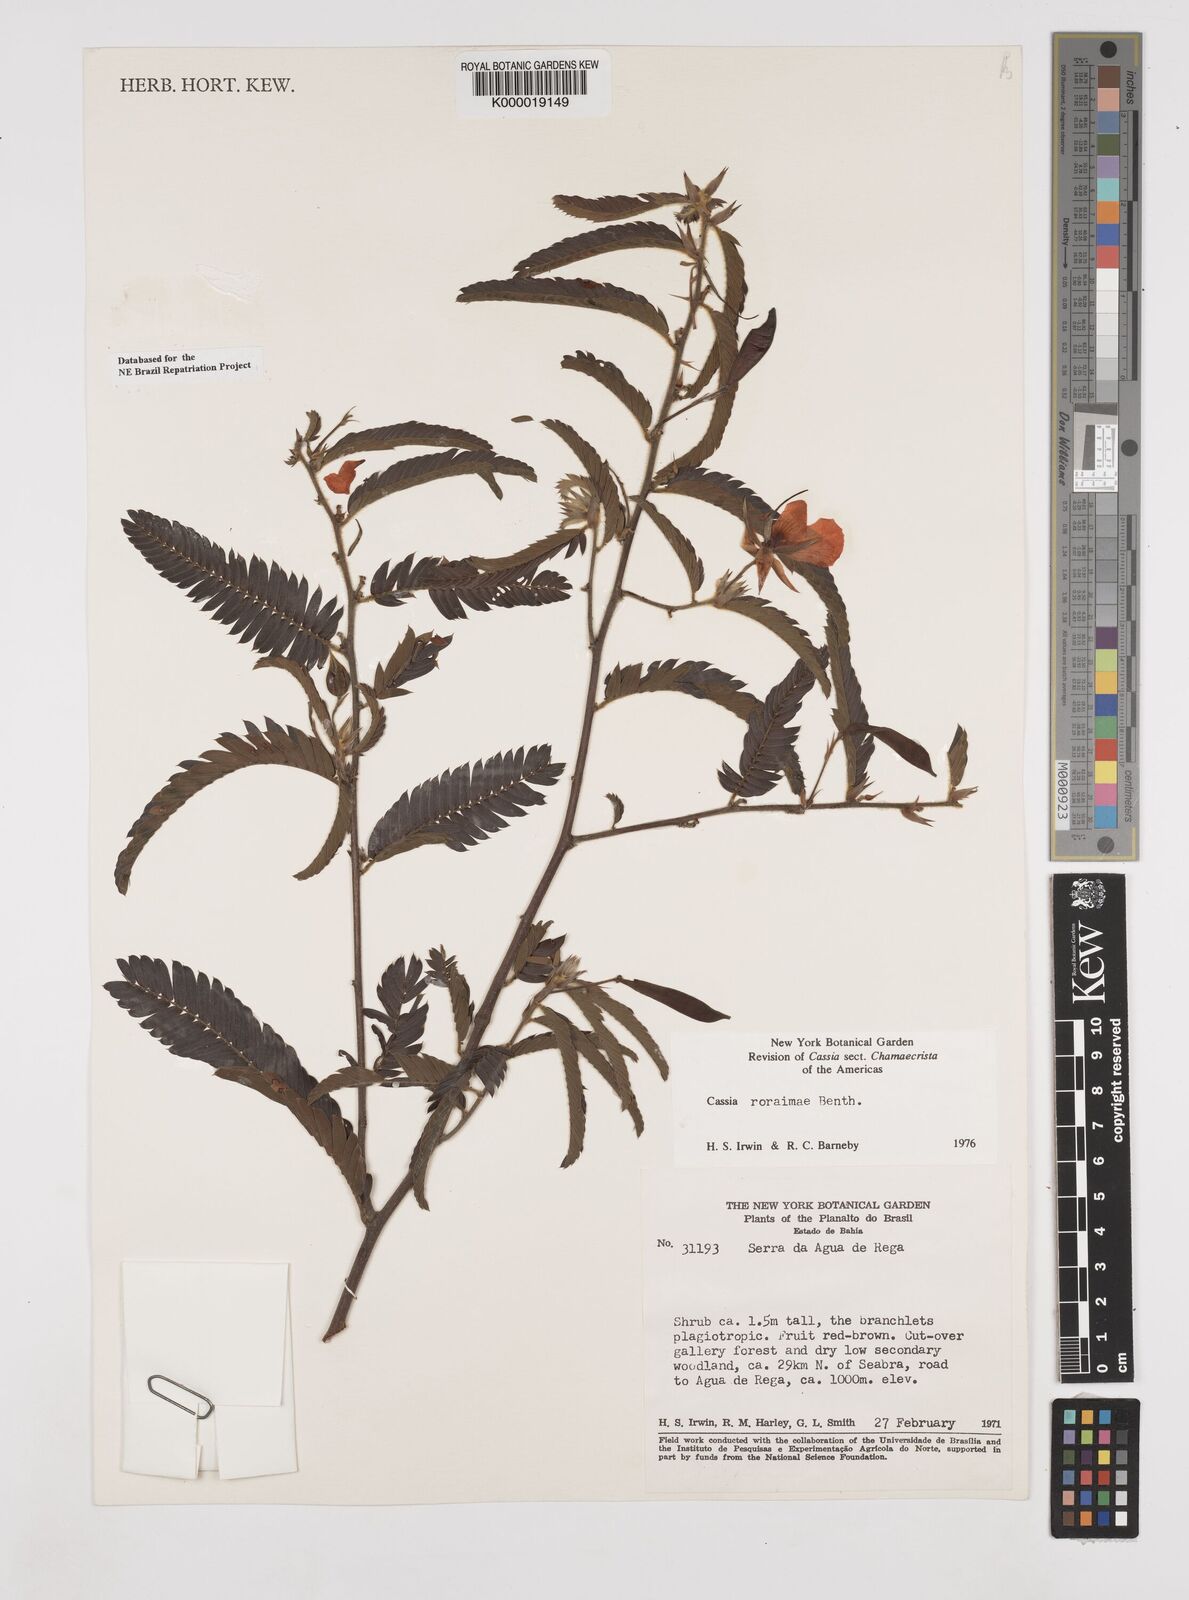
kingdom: Plantae
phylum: Tracheophyta
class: Magnoliopsida
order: Fabales
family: Fabaceae
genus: Chamaecrista
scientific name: Chamaecrista roraimae
